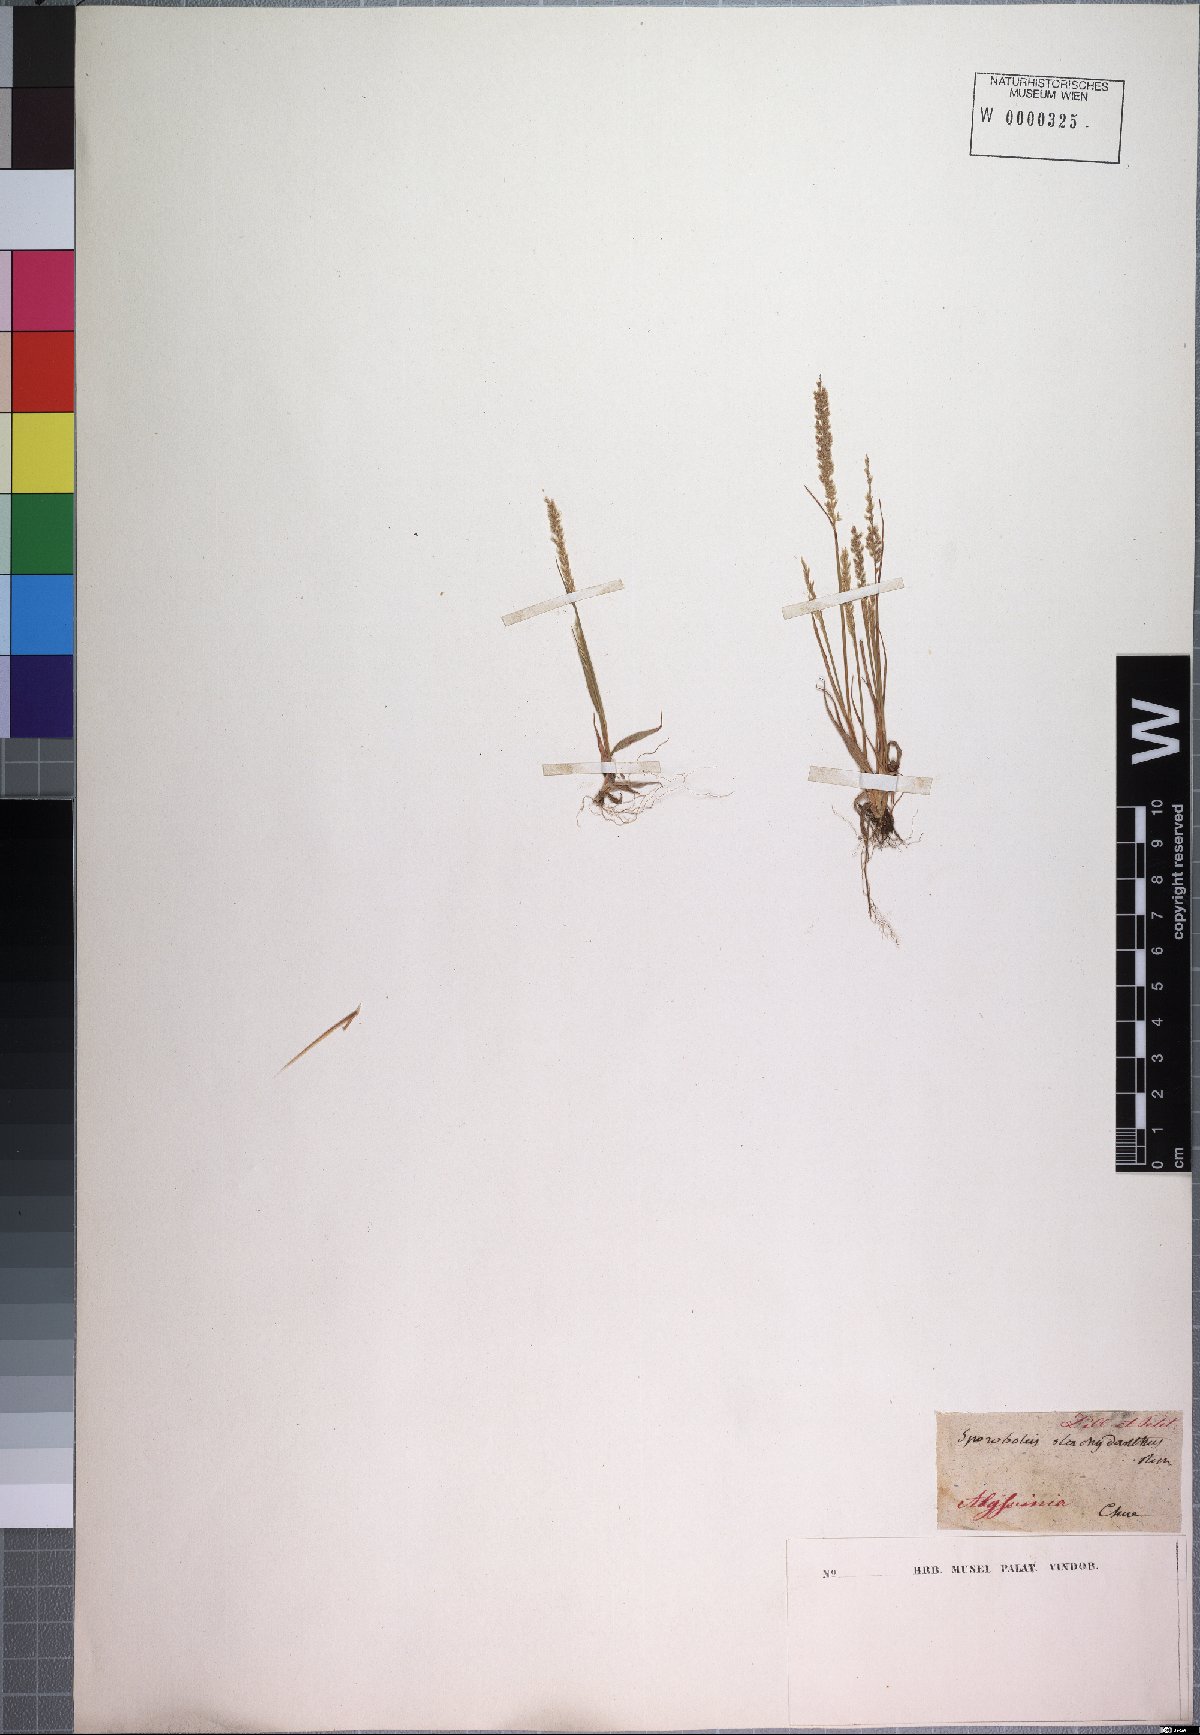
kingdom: Plantae
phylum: Tracheophyta
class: Liliopsida
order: Poales
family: Poaceae
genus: Sporobolus
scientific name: Sporobolus pilifer
